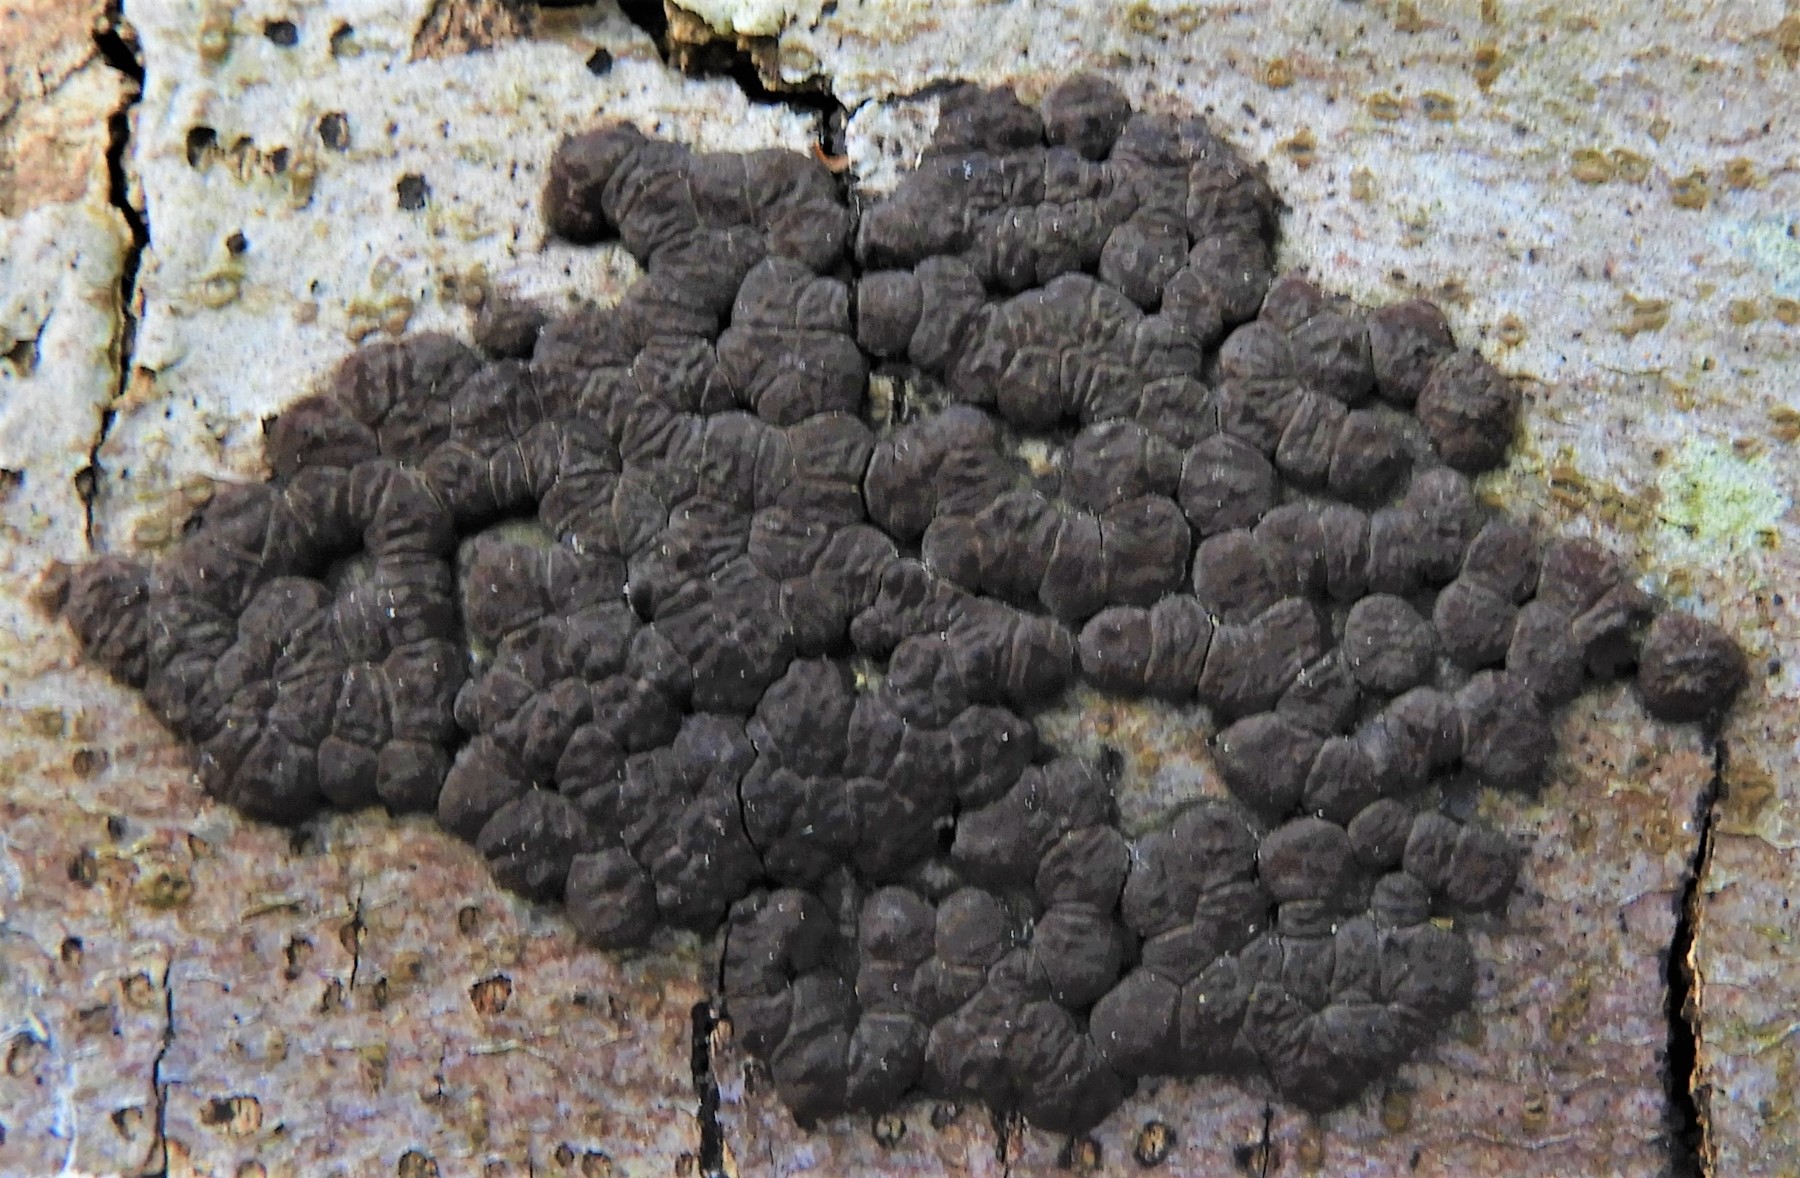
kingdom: Fungi
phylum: Ascomycota
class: Sordariomycetes
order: Xylariales
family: Hypoxylaceae
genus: Jackrogersella
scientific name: Jackrogersella cohaerens
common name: sammenflydende kulbær
